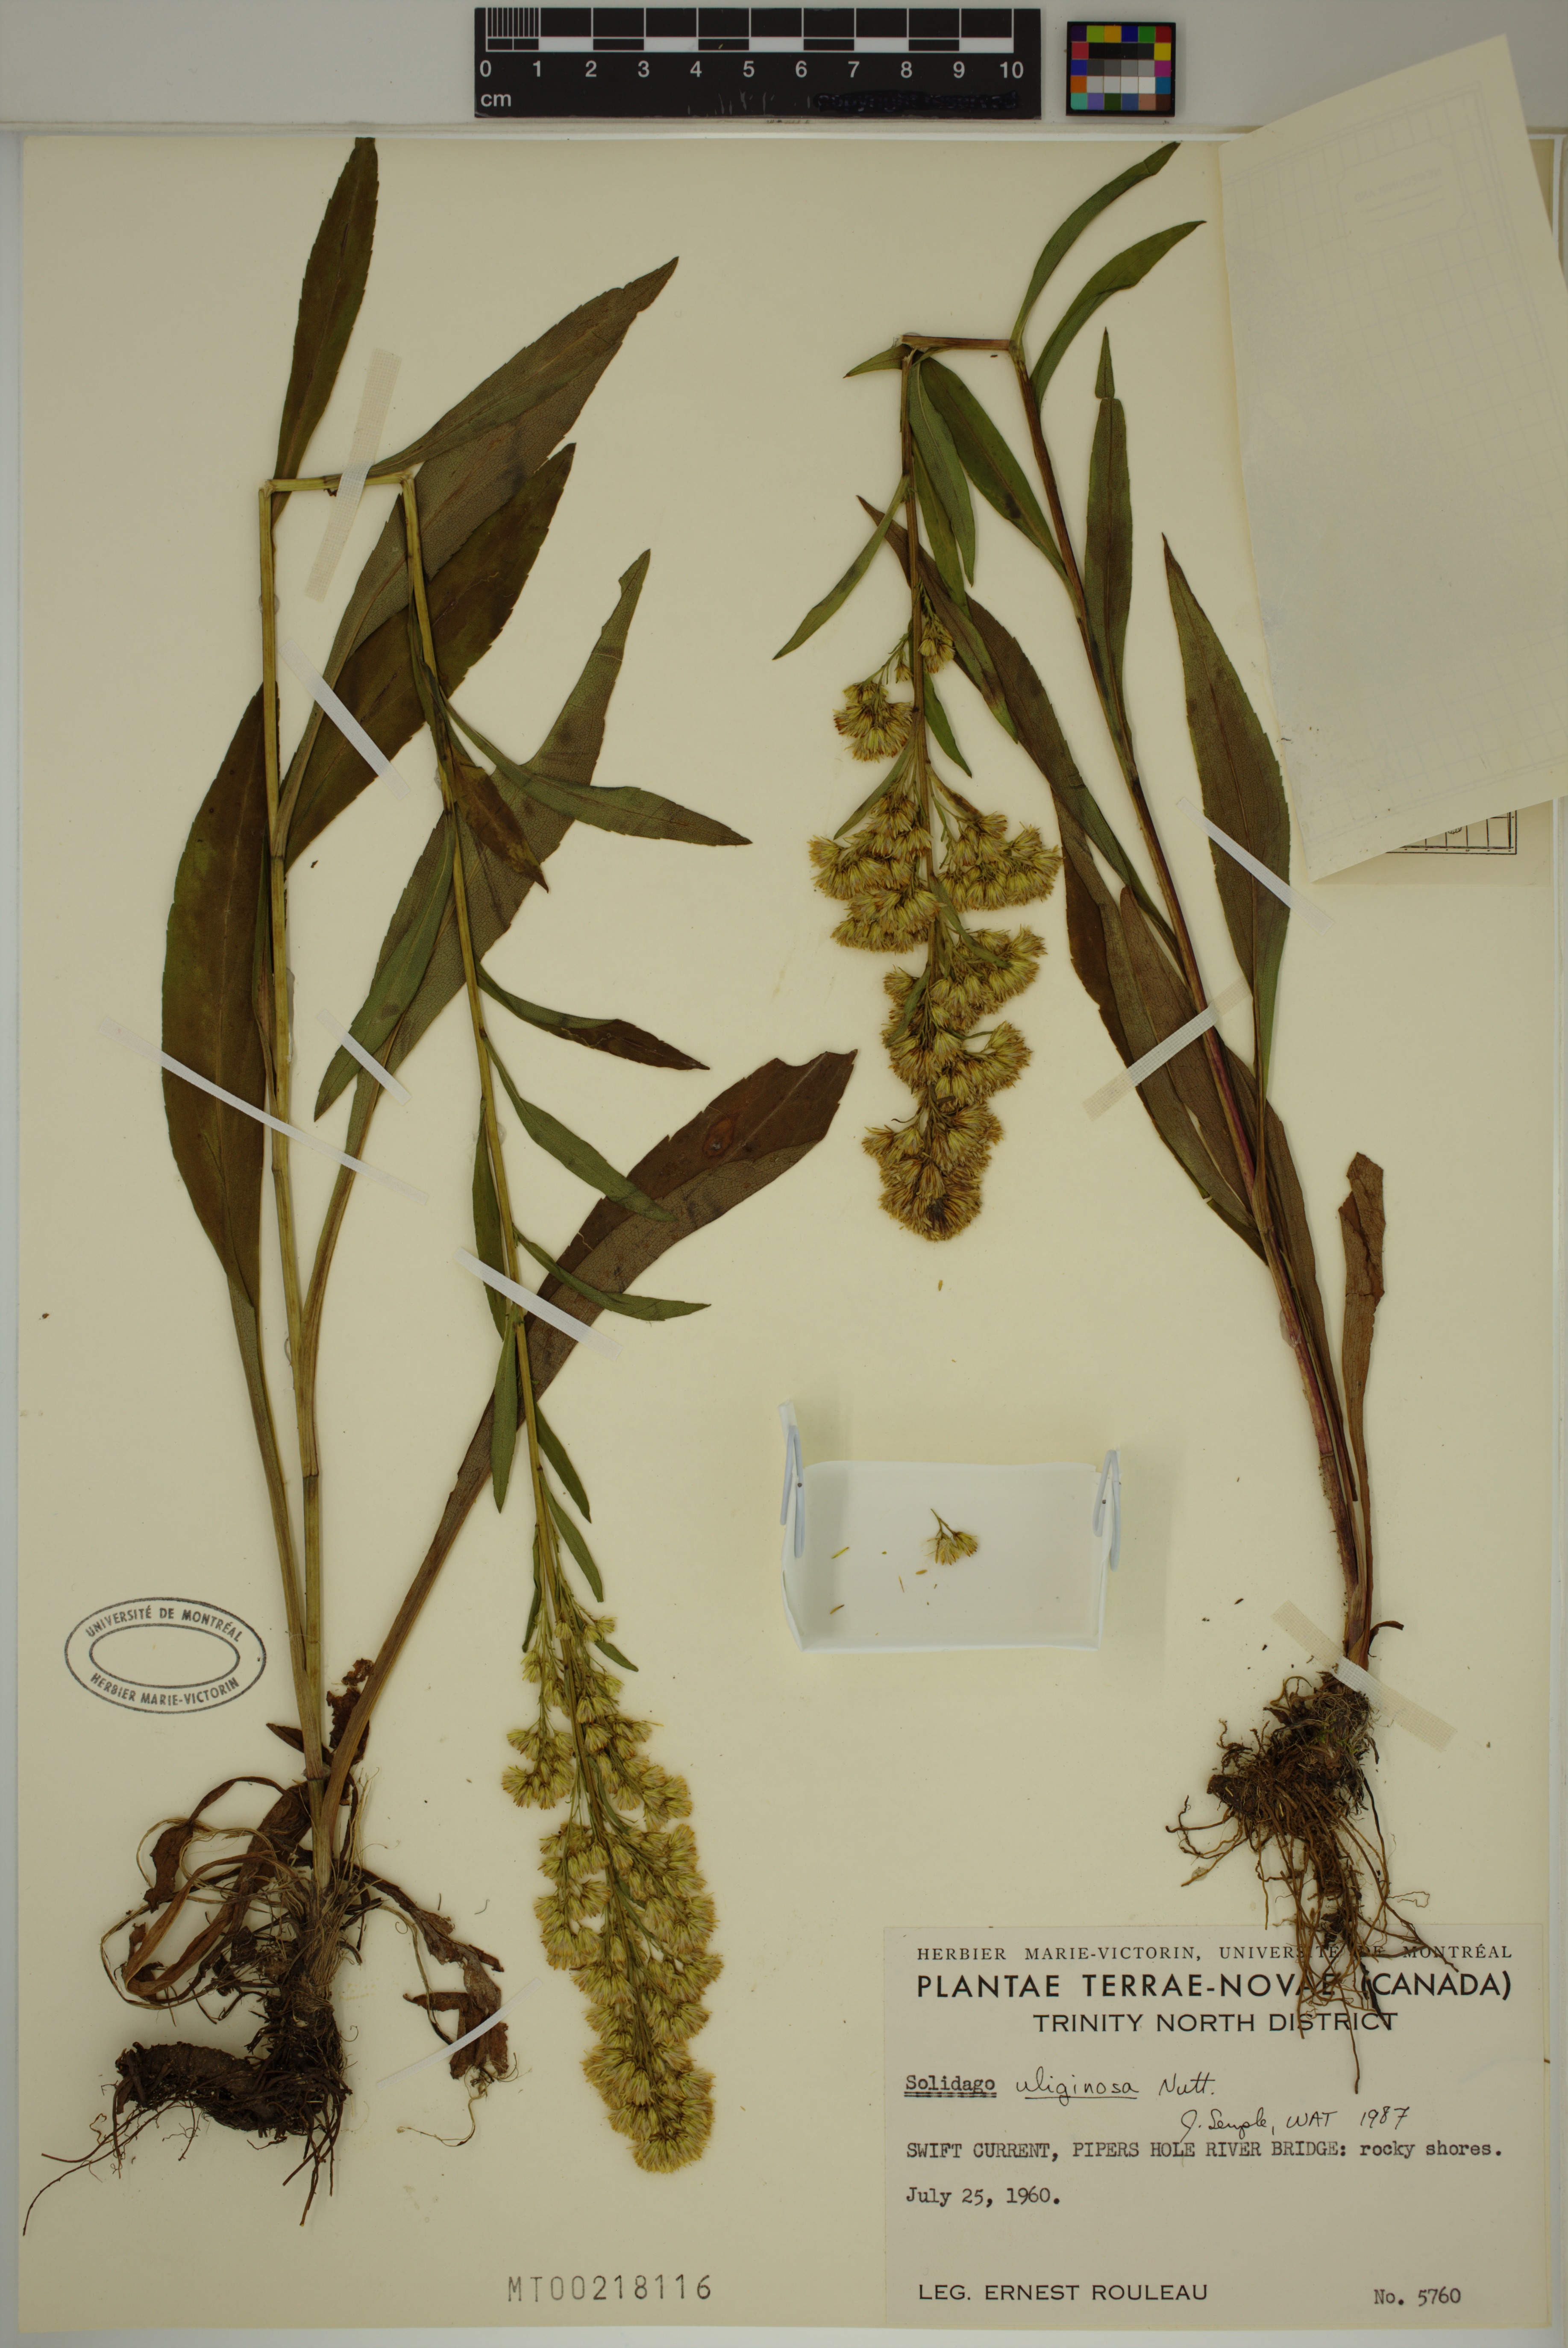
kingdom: Plantae
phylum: Tracheophyta
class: Magnoliopsida
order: Asterales
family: Asteraceae
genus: Solidago
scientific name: Solidago uliginosa
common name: Bog goldenrod
